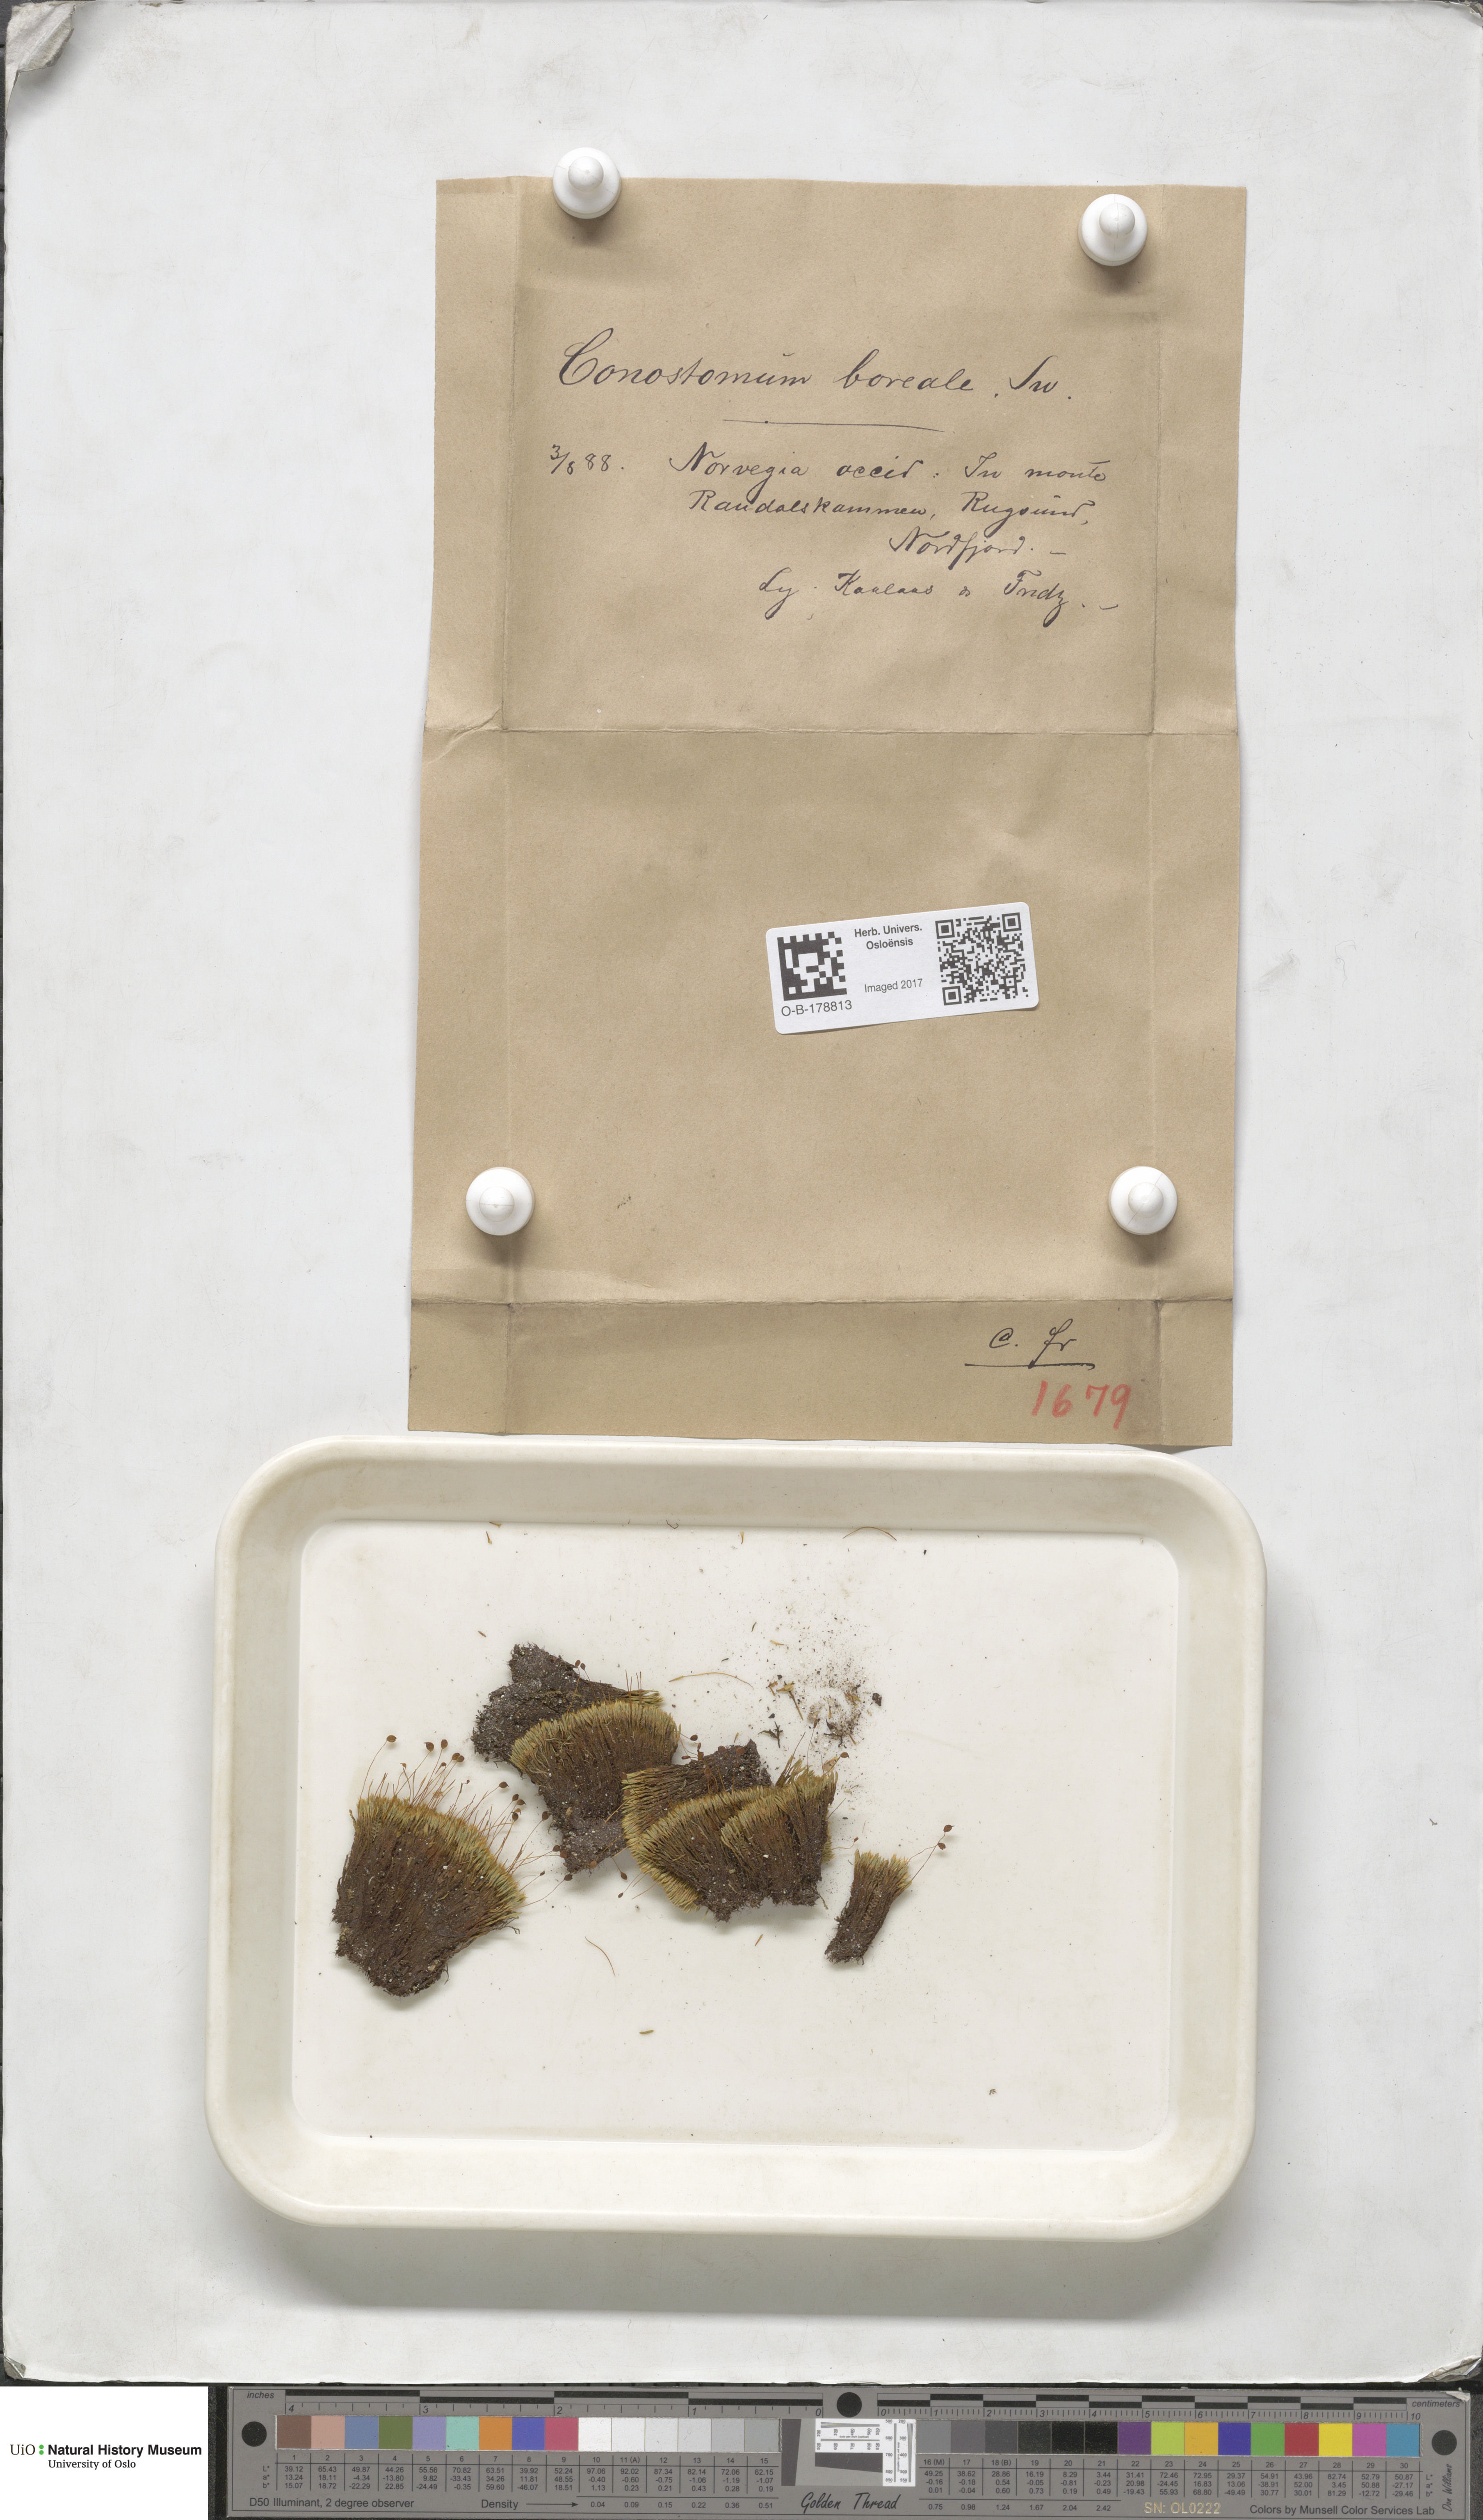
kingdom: Plantae
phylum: Bryophyta
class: Bryopsida
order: Bartramiales
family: Bartramiaceae
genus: Conostomum
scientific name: Conostomum tetragonum
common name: Helmet moss
